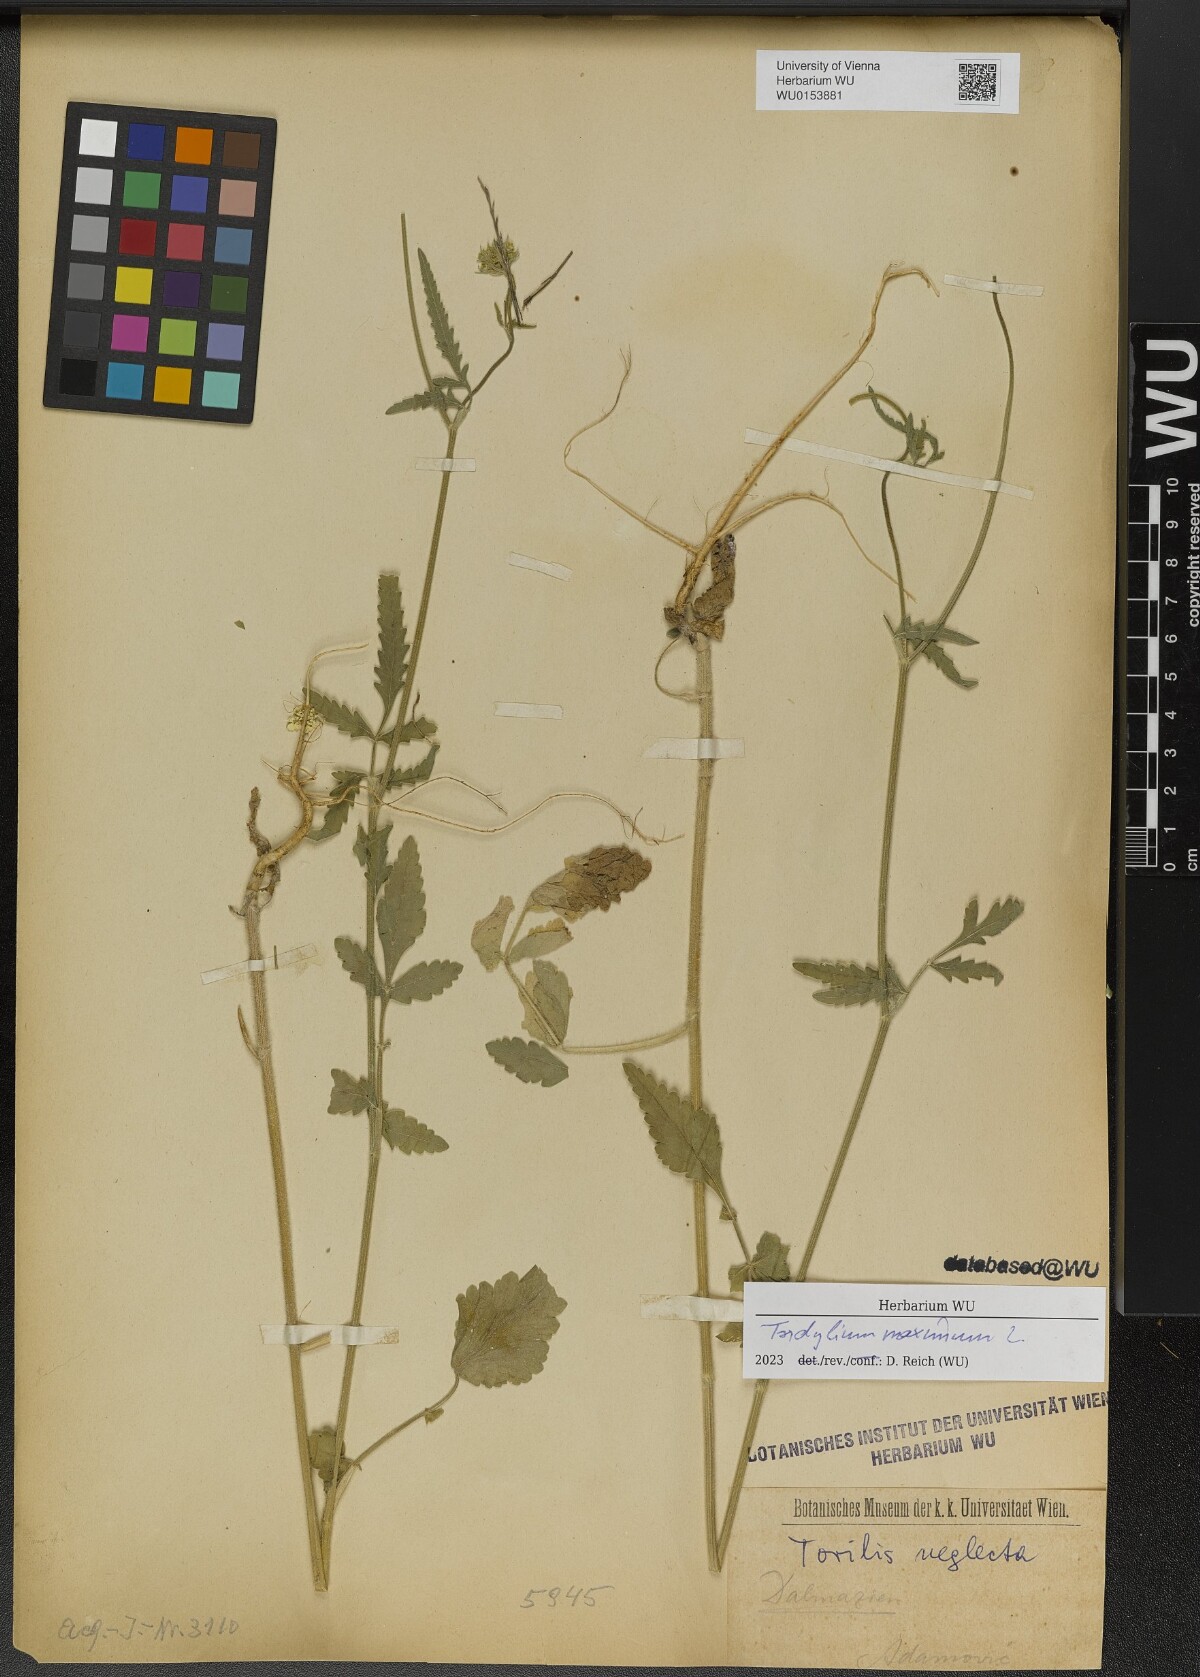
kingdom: Plantae
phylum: Tracheophyta
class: Magnoliopsida
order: Caryophyllales
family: Caryophyllaceae
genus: Herniaria
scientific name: Herniaria glabra
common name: Smooth rupturewort
